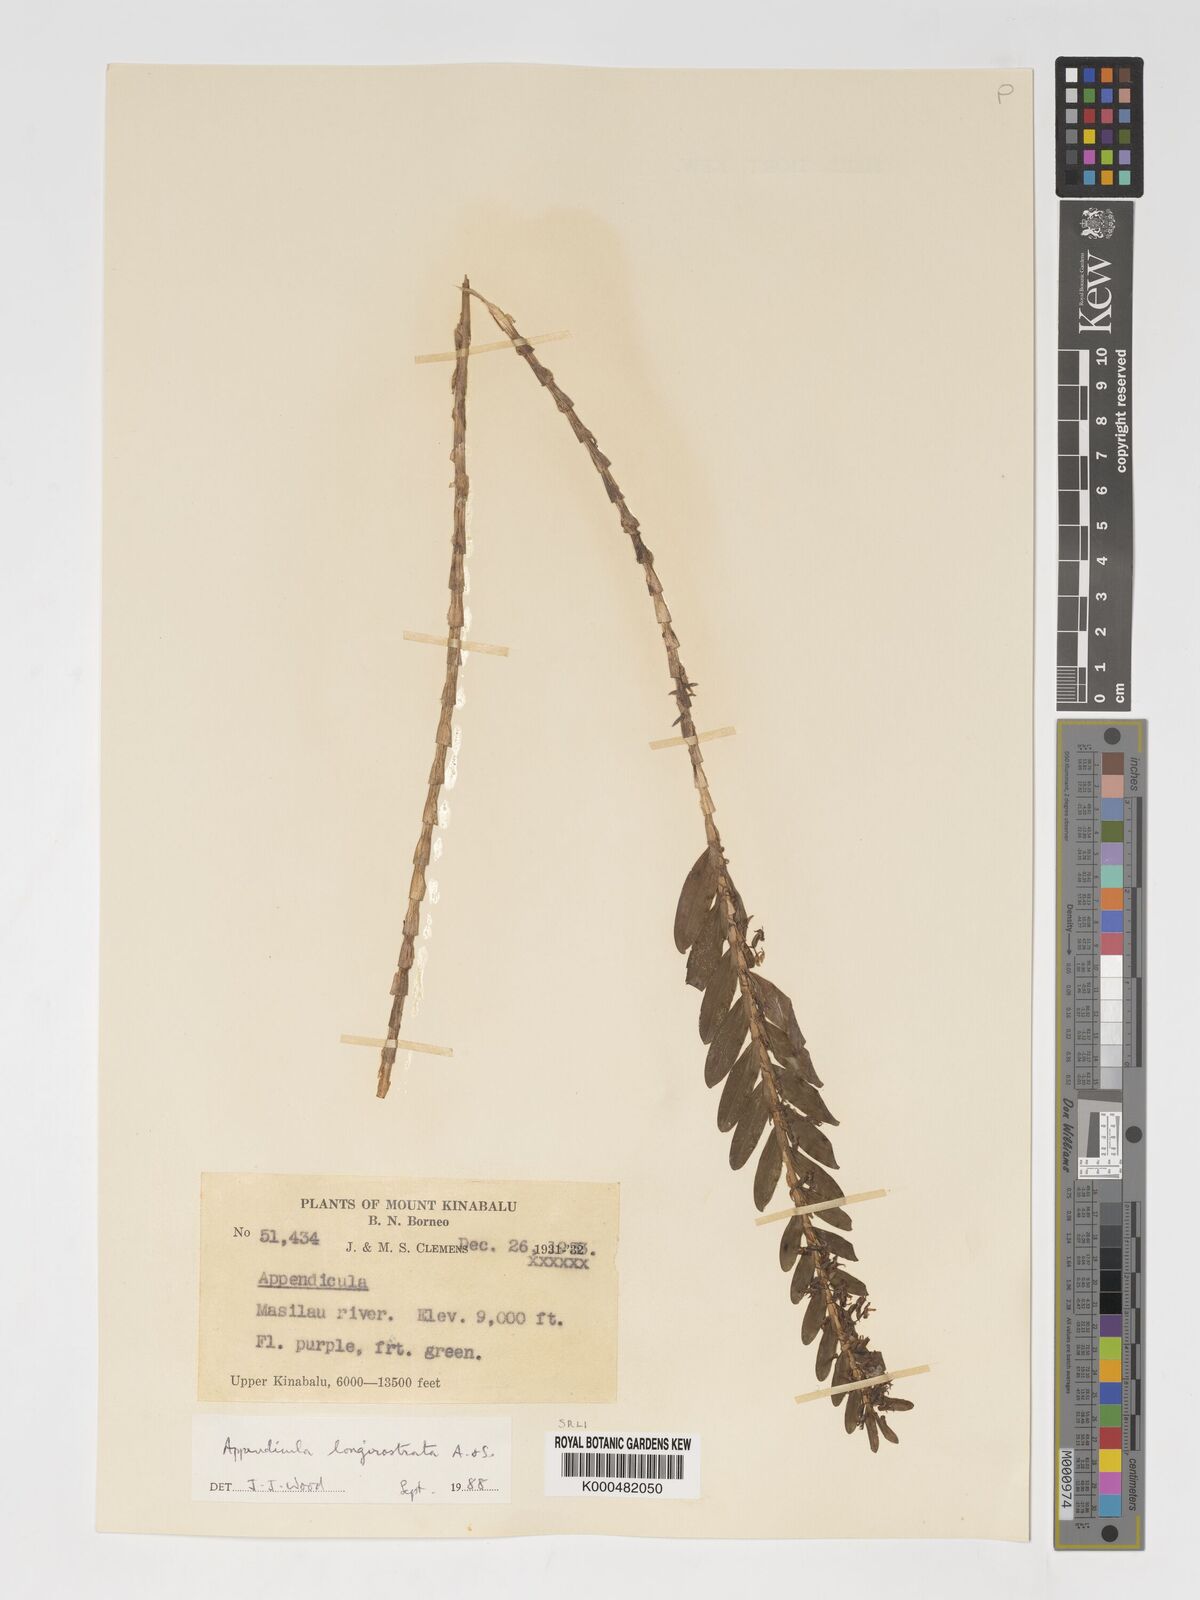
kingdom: Plantae
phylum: Tracheophyta
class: Liliopsida
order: Asparagales
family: Orchidaceae
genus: Appendicula
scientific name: Appendicula longirostrata
